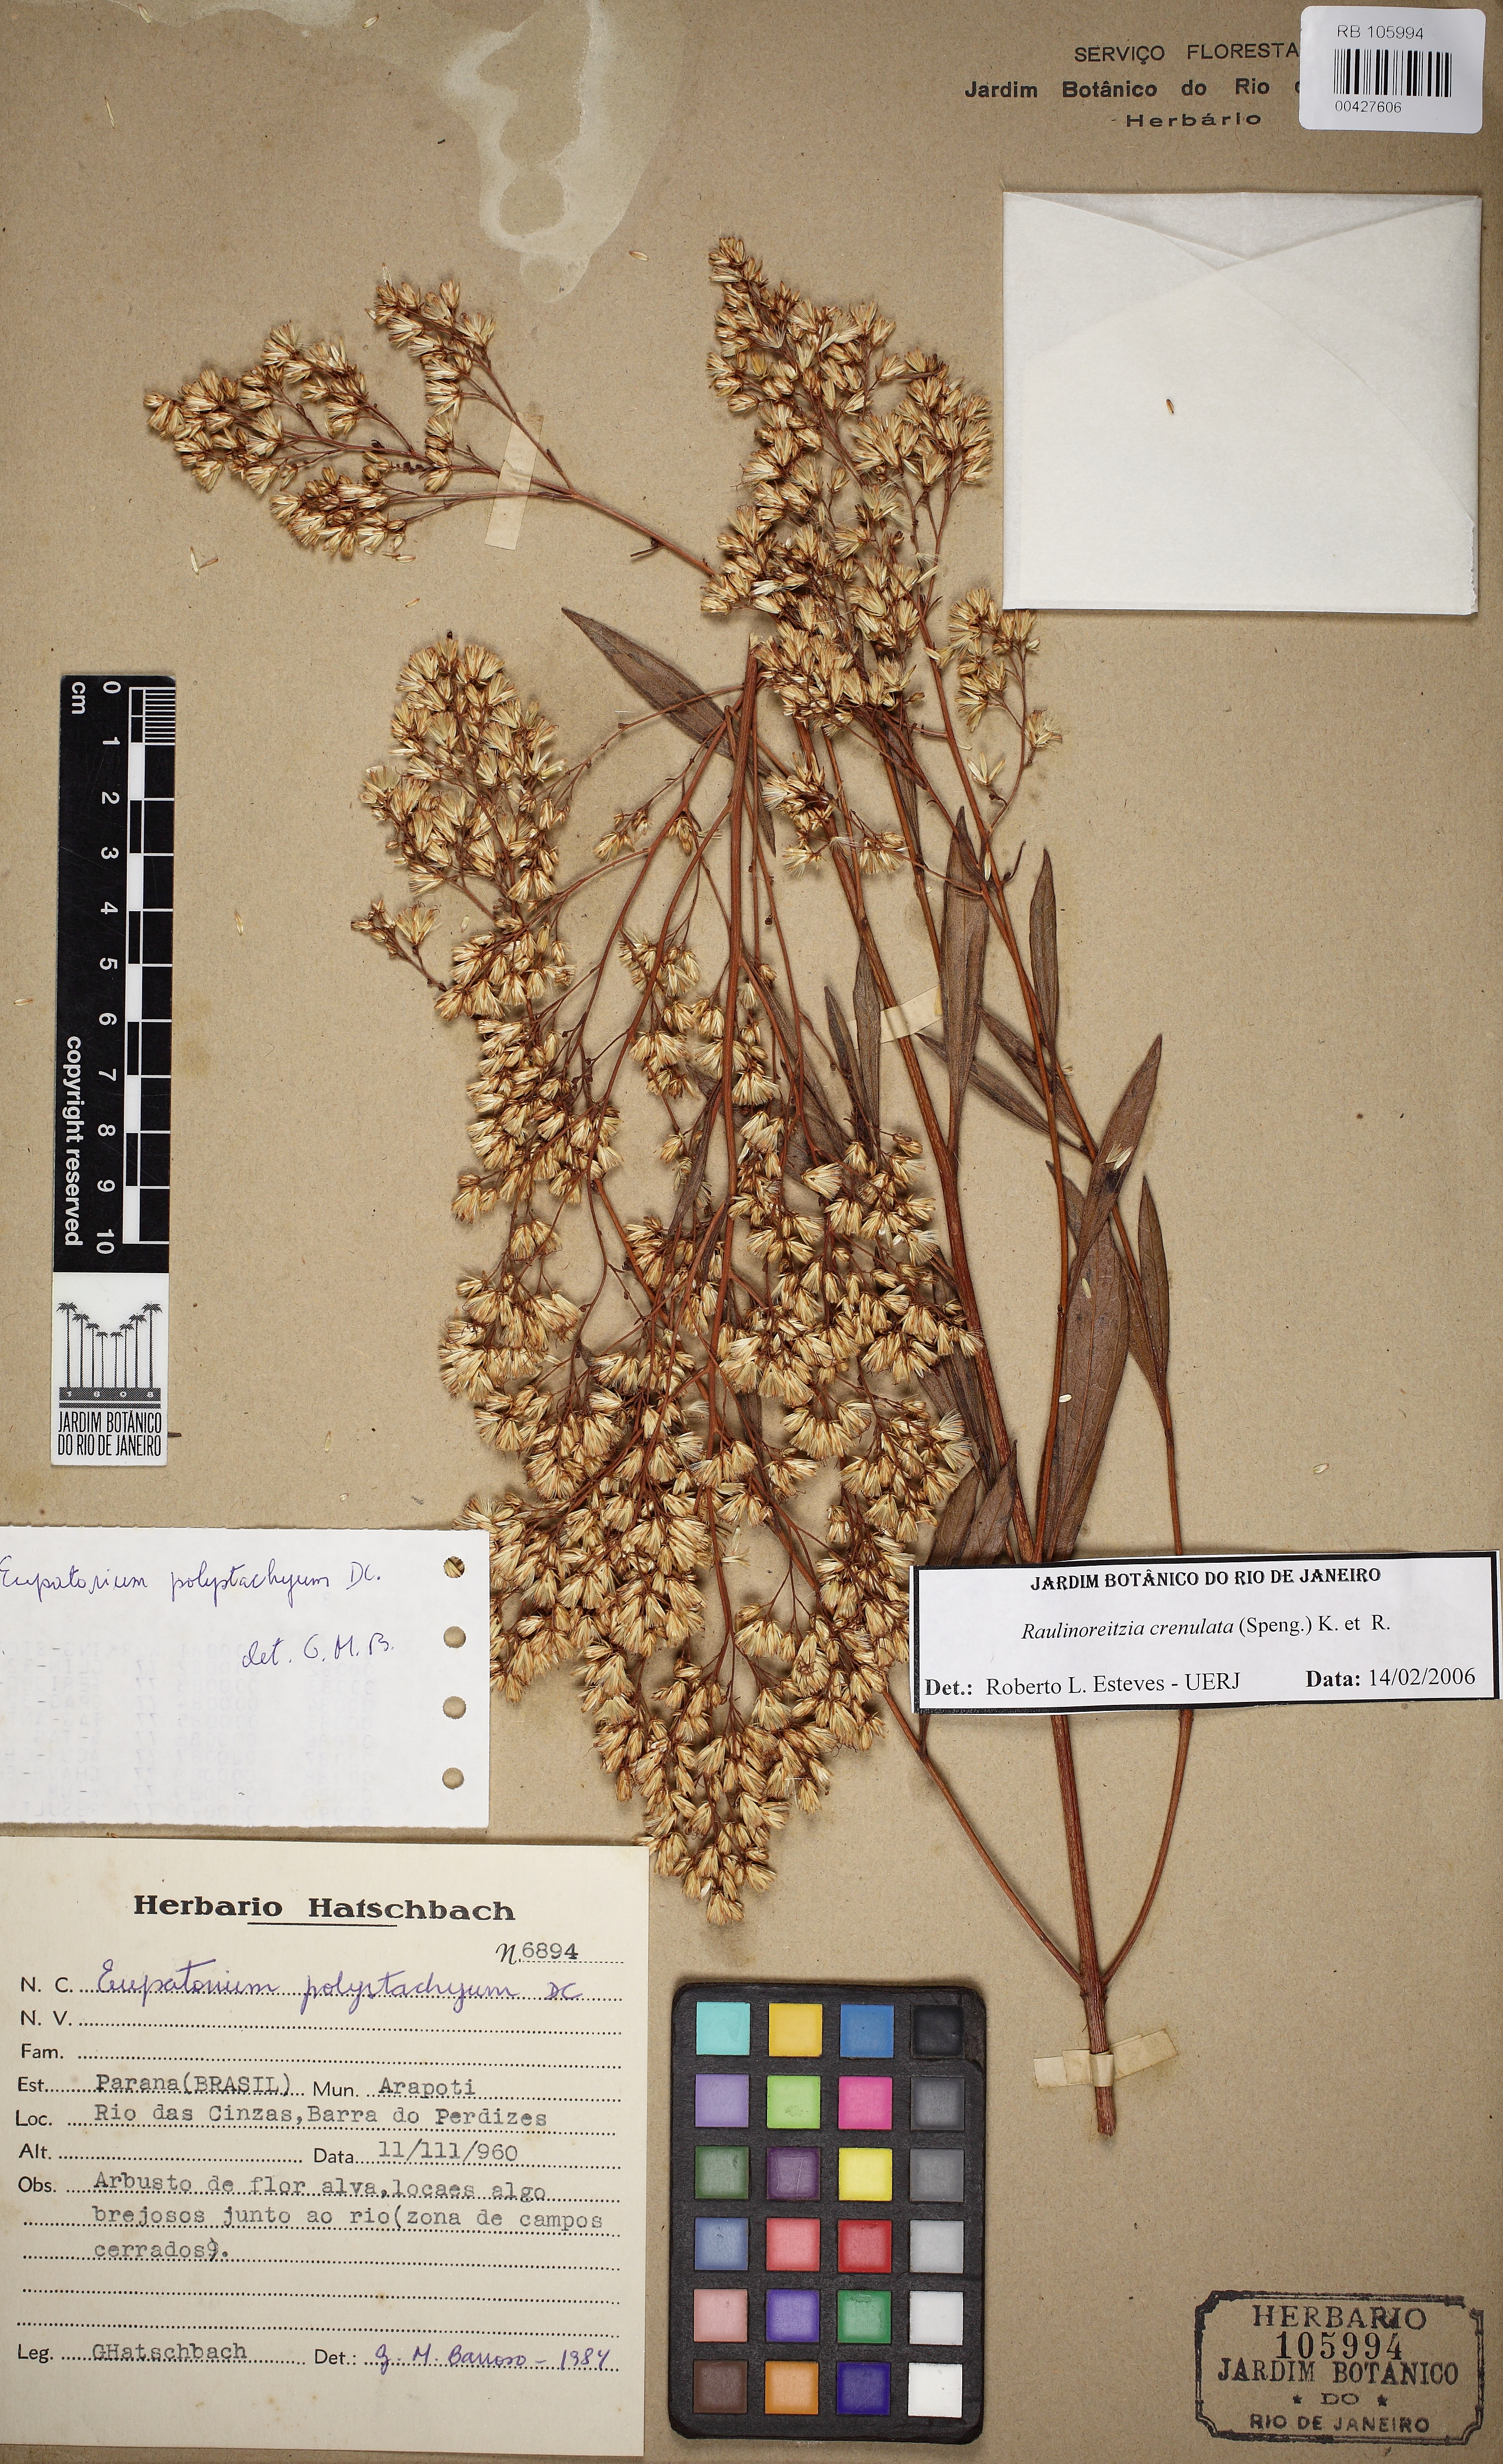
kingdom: Plantae
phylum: Tracheophyta
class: Magnoliopsida
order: Asterales
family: Asteraceae
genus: Raulinoreitzia
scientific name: Raulinoreitzia crenulata
